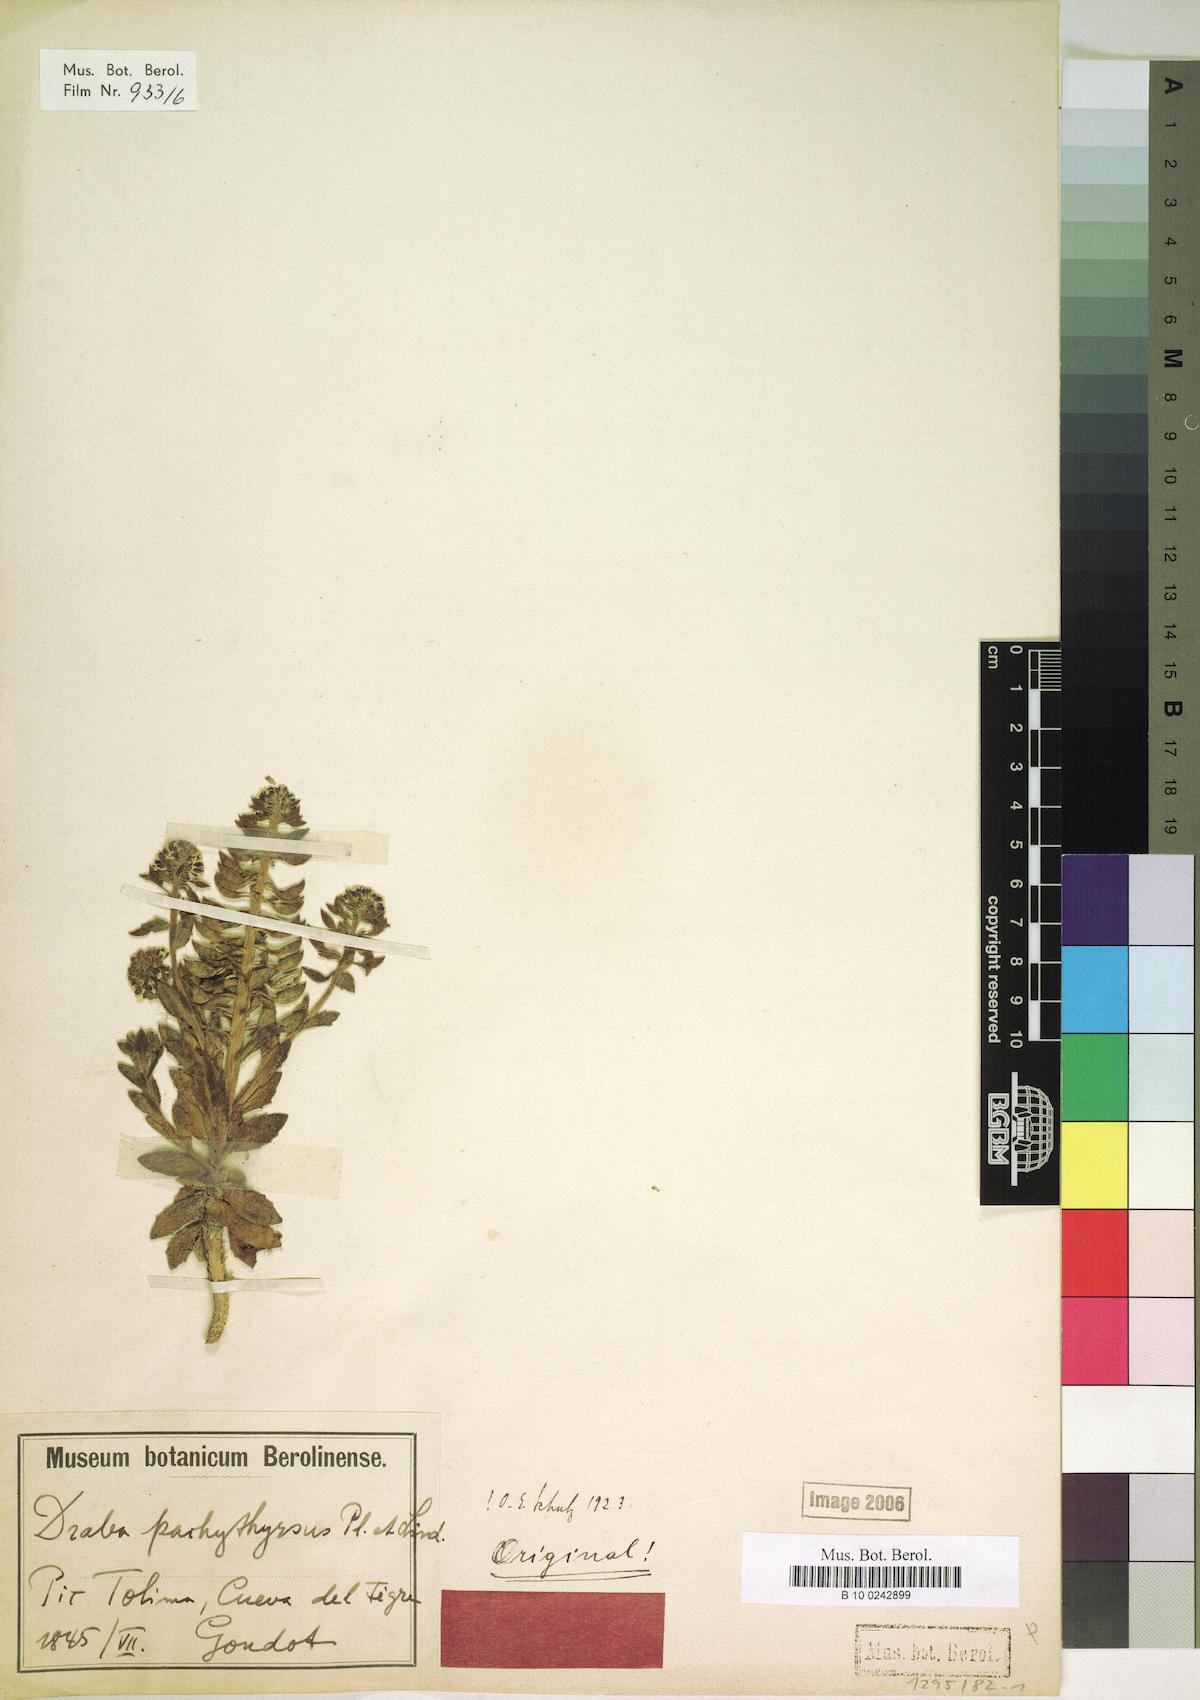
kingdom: Plantae
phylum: Tracheophyta
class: Magnoliopsida
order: Brassicales
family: Brassicaceae
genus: Draba
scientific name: Draba pachythyrsa
